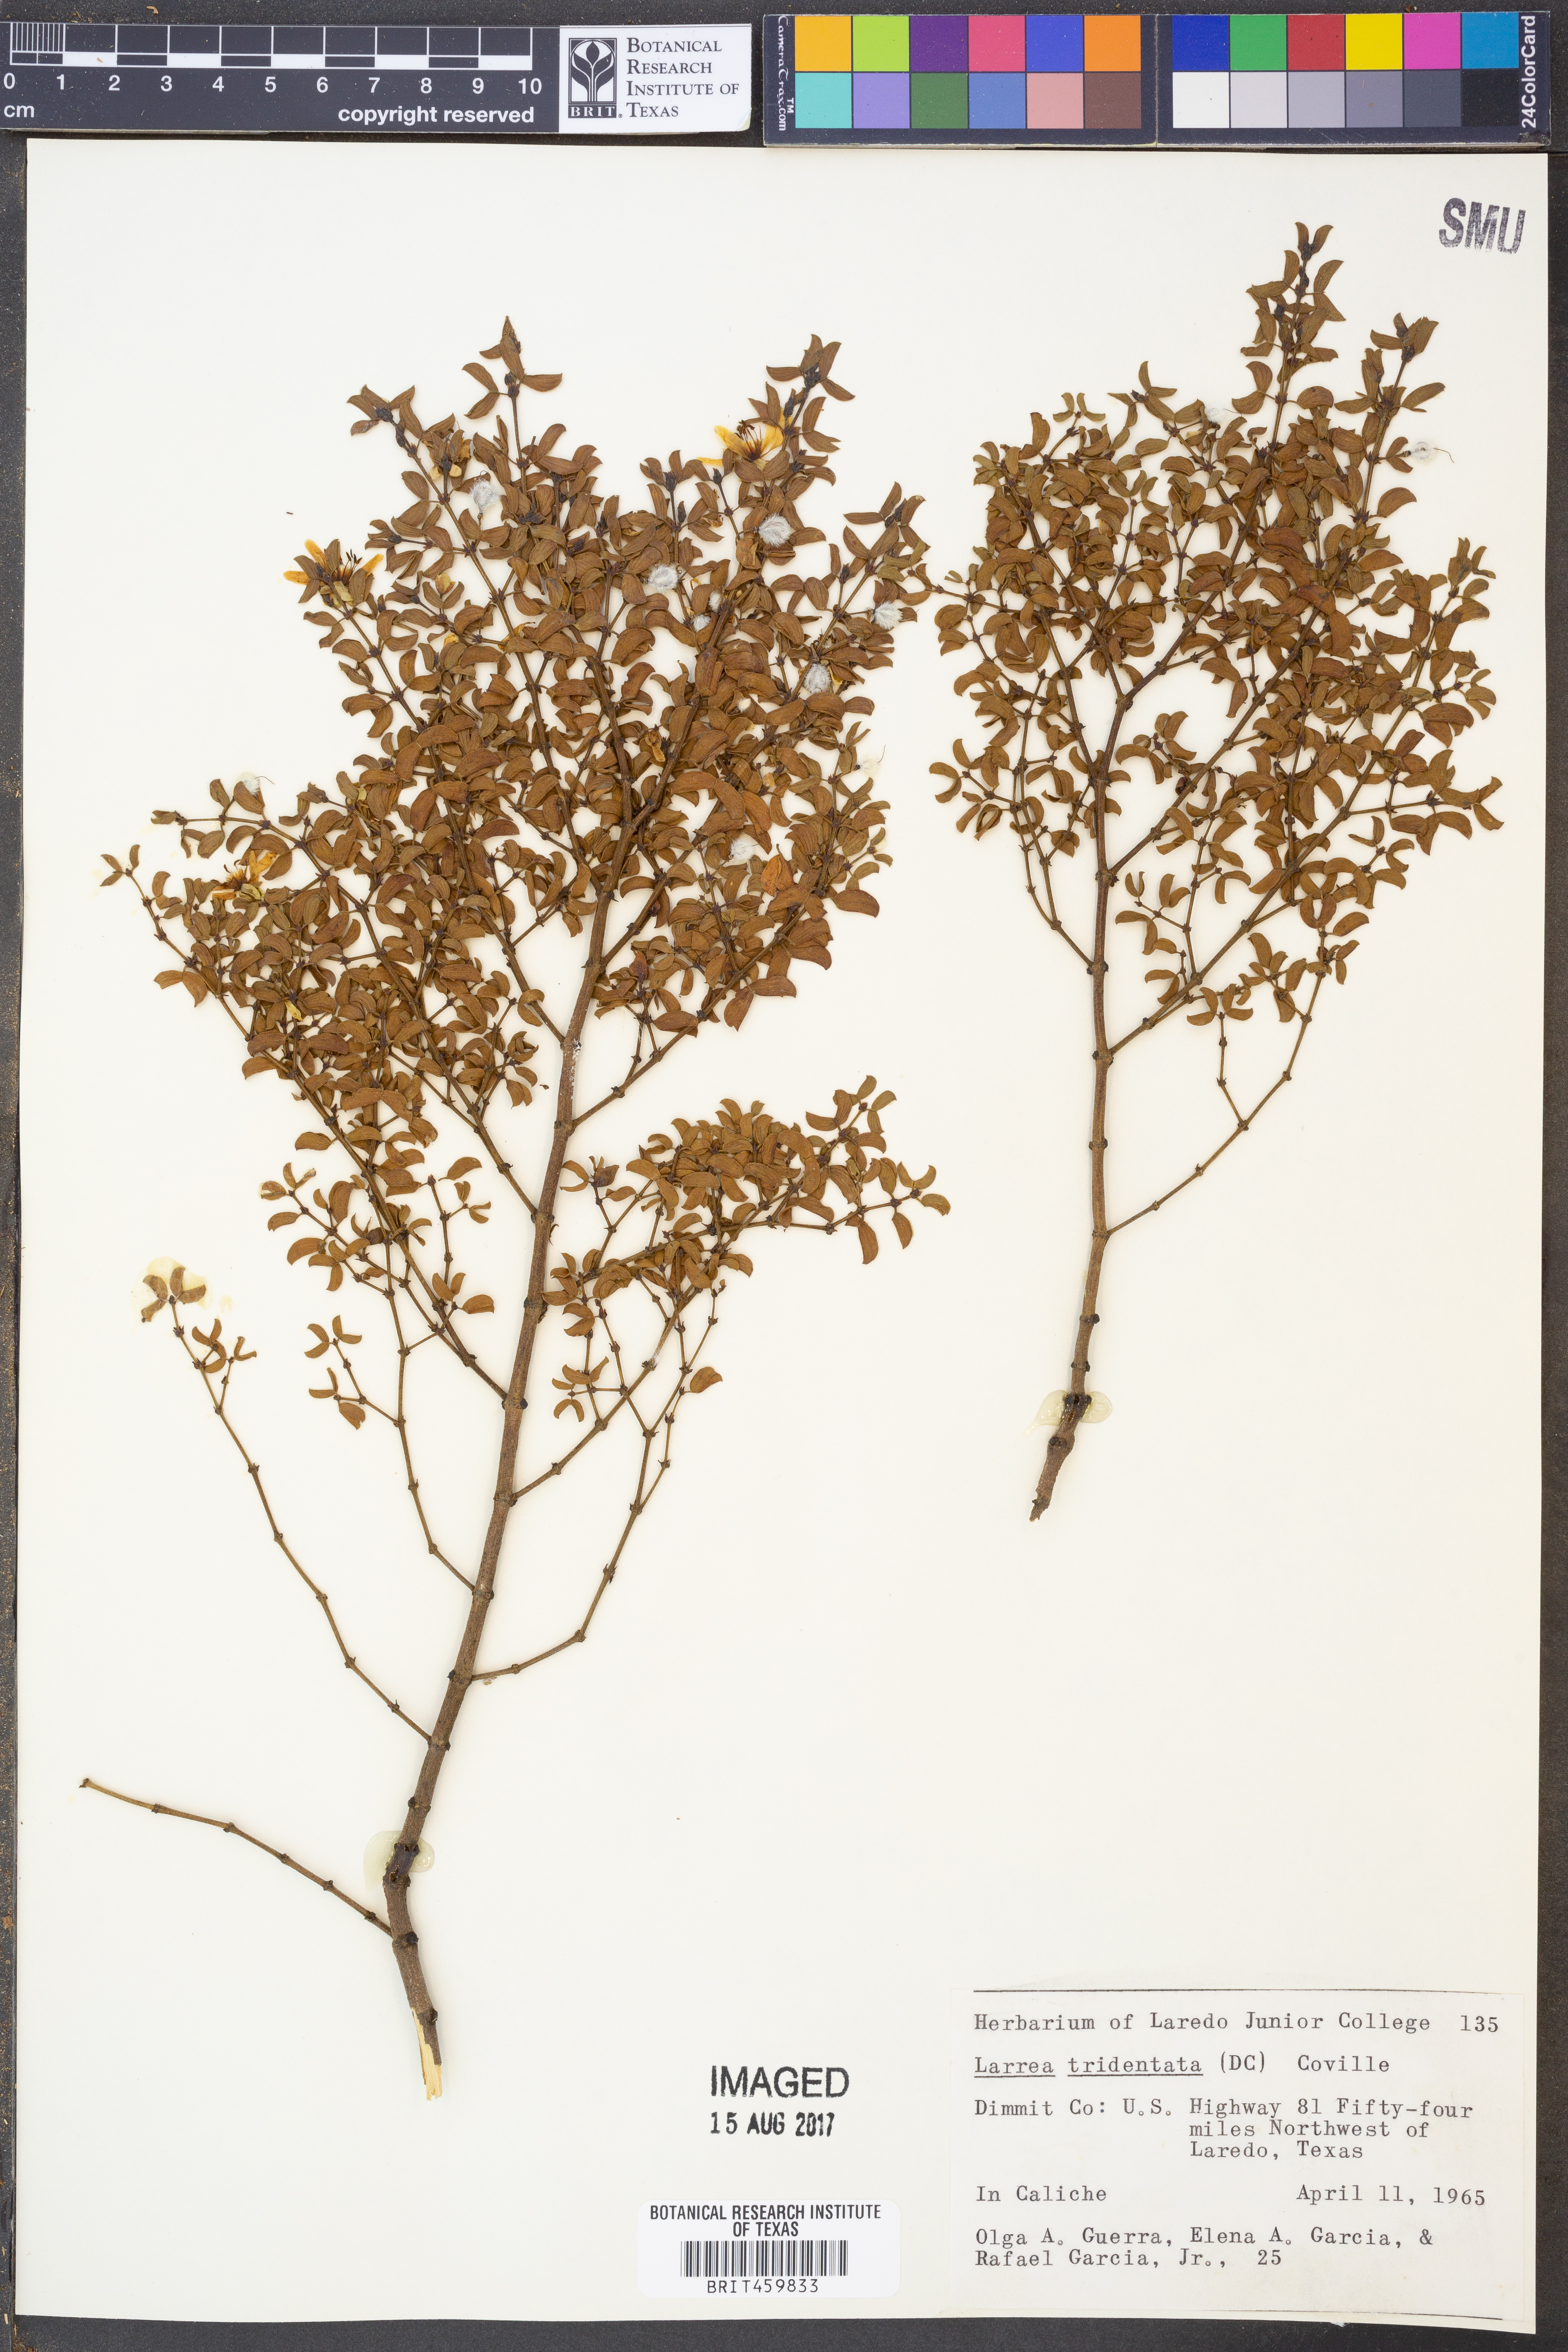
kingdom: Plantae
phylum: Tracheophyta
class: Magnoliopsida
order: Zygophyllales
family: Zygophyllaceae
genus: Larrea
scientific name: Larrea tridentata
